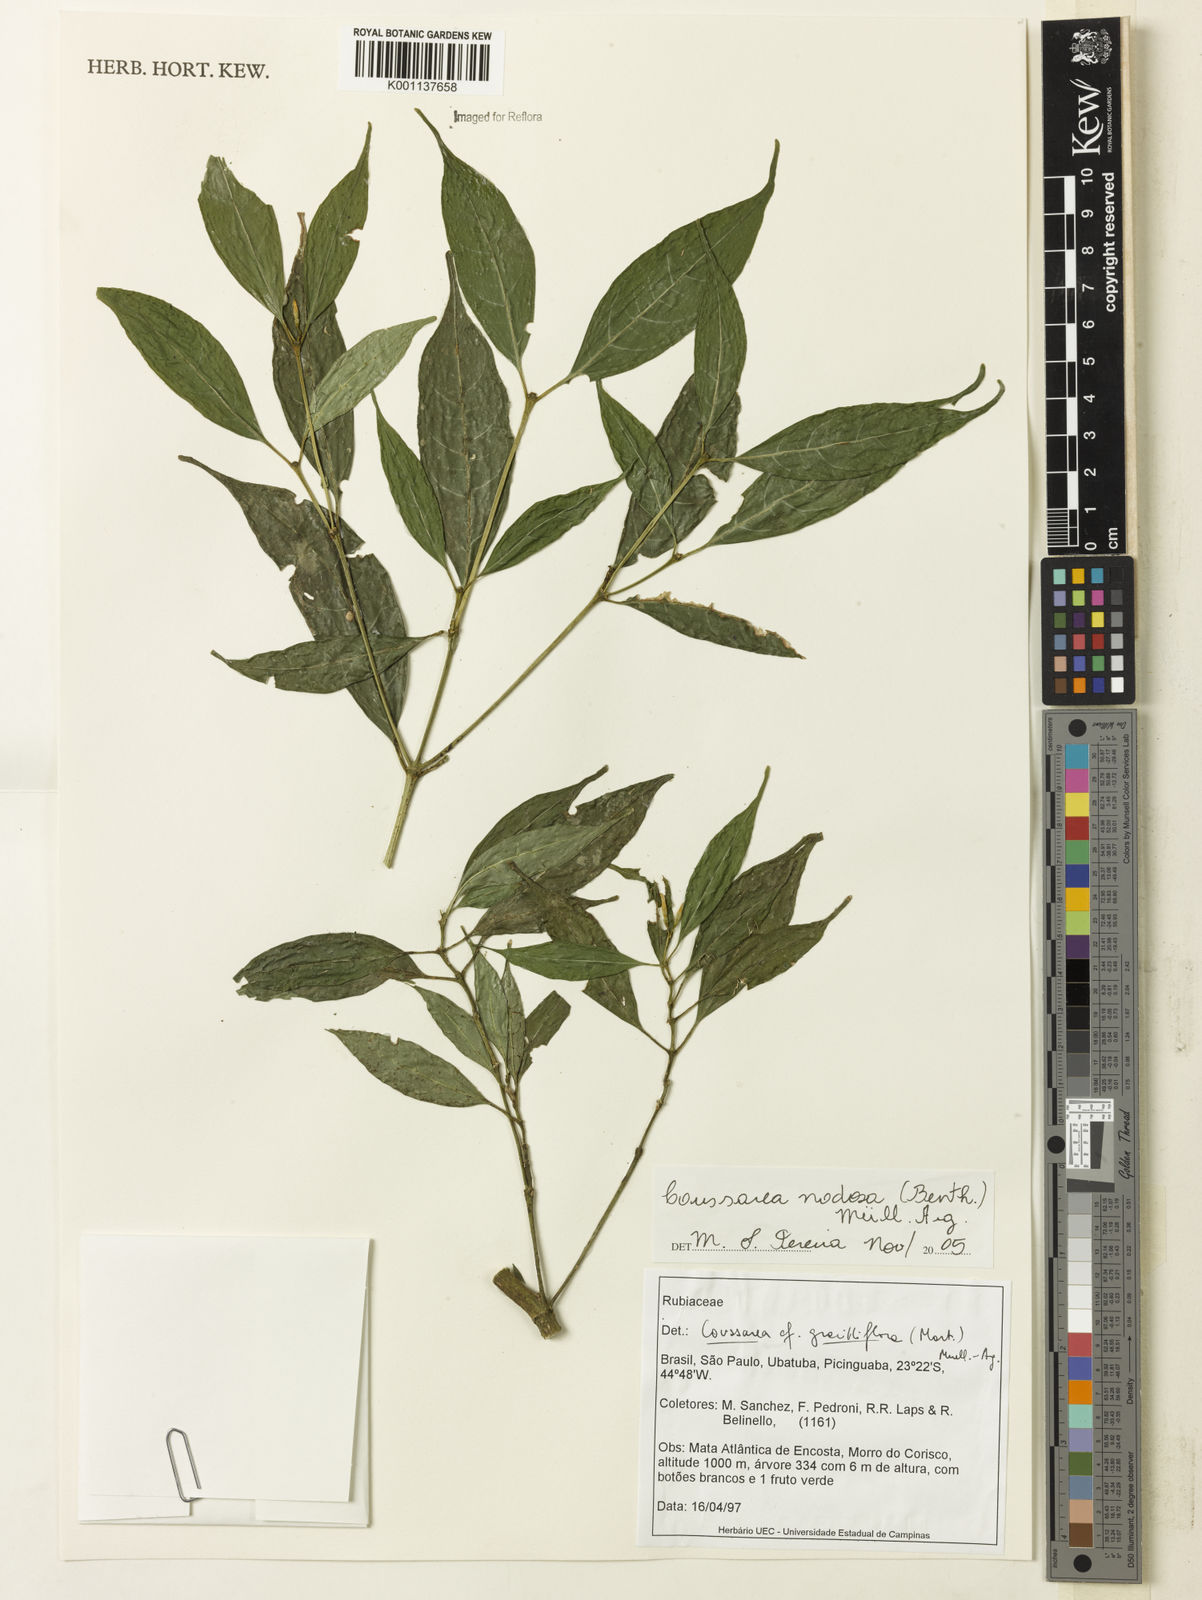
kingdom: Plantae
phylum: Tracheophyta
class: Magnoliopsida
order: Gentianales
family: Rubiaceae
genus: Coussarea
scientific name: Coussarea
